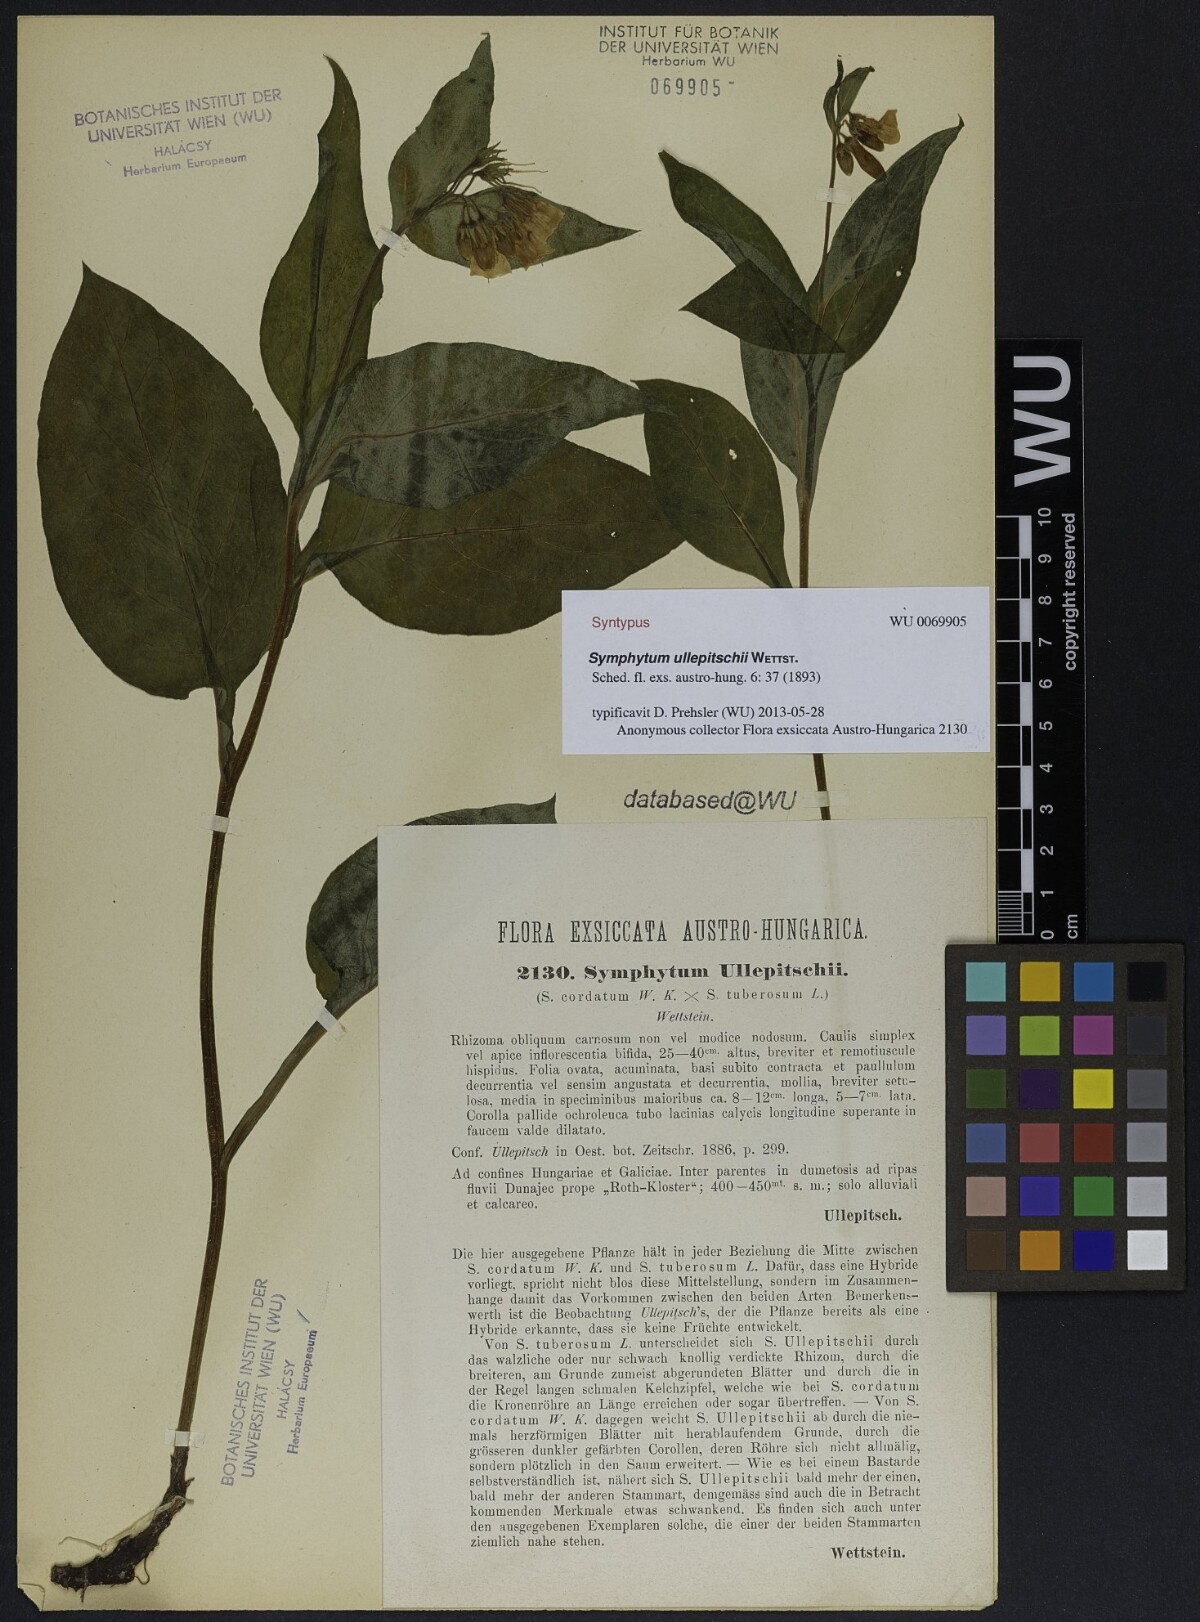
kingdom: Plantae
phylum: Tracheophyta
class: Magnoliopsida
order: Boraginales
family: Boraginaceae
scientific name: Boraginaceae
